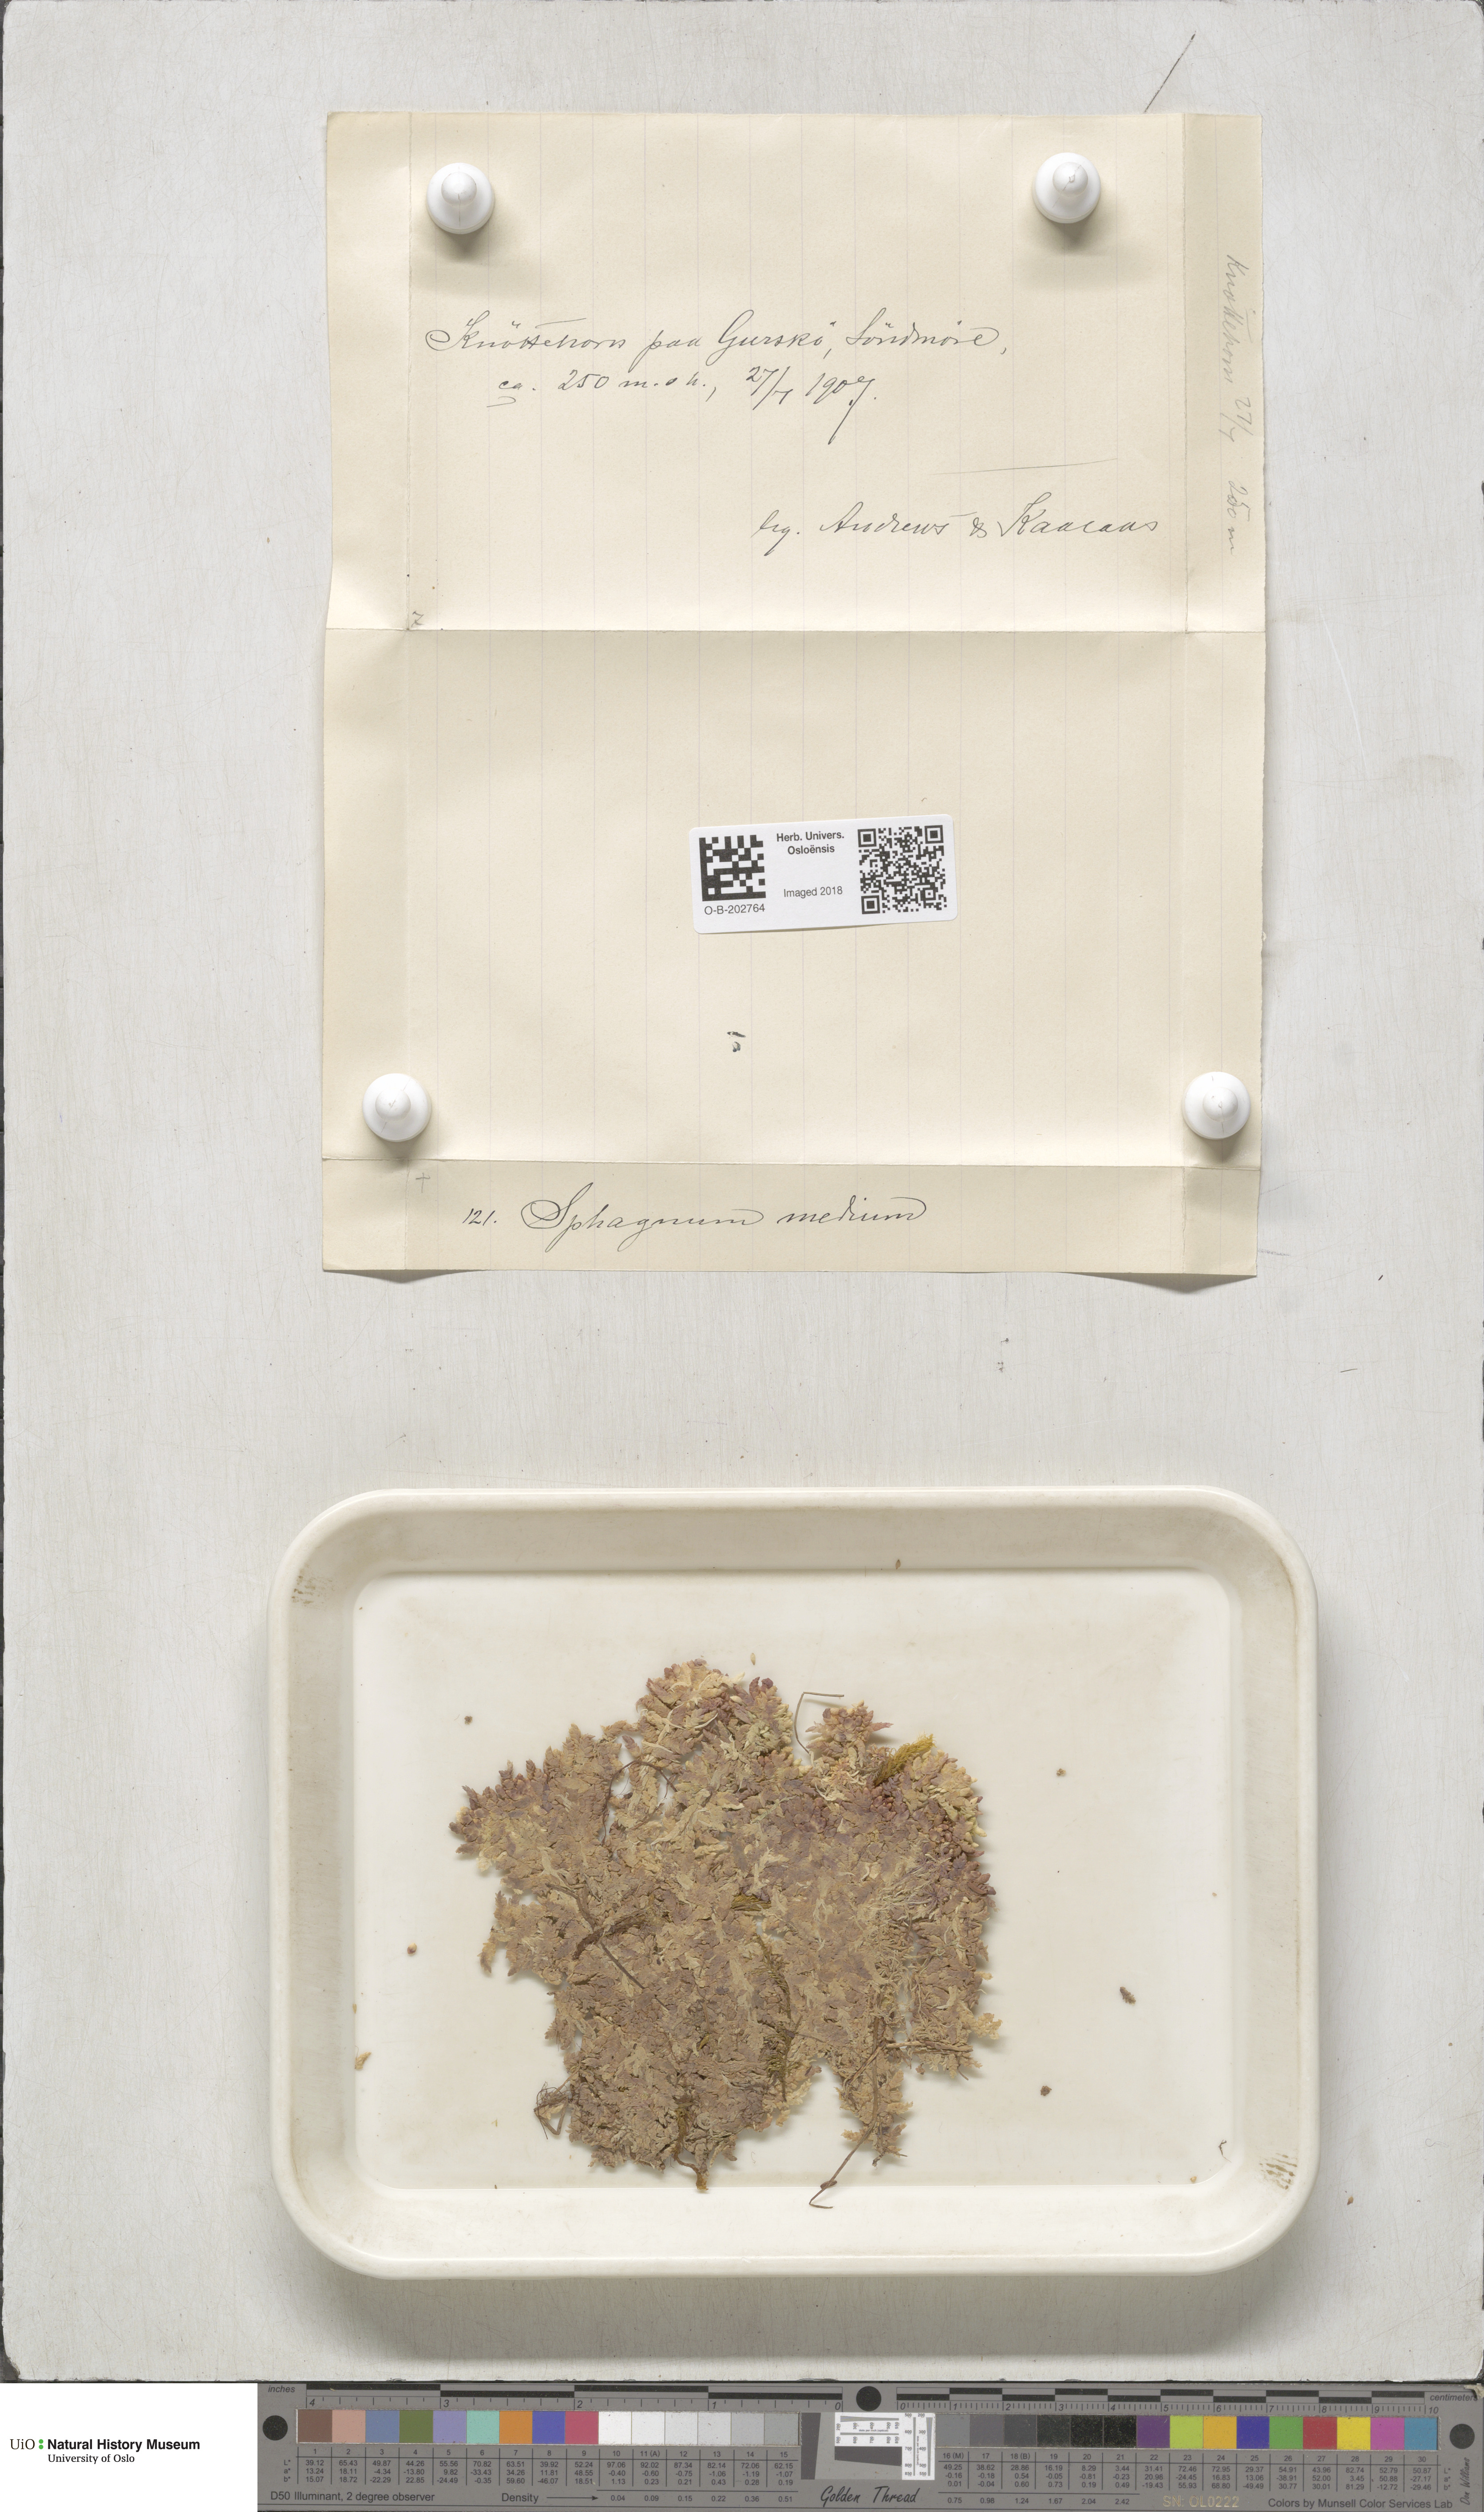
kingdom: Plantae
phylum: Bryophyta
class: Sphagnopsida
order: Sphagnales
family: Sphagnaceae
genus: Sphagnum
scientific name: Sphagnum magellanicum
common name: Magellan's peat moss
